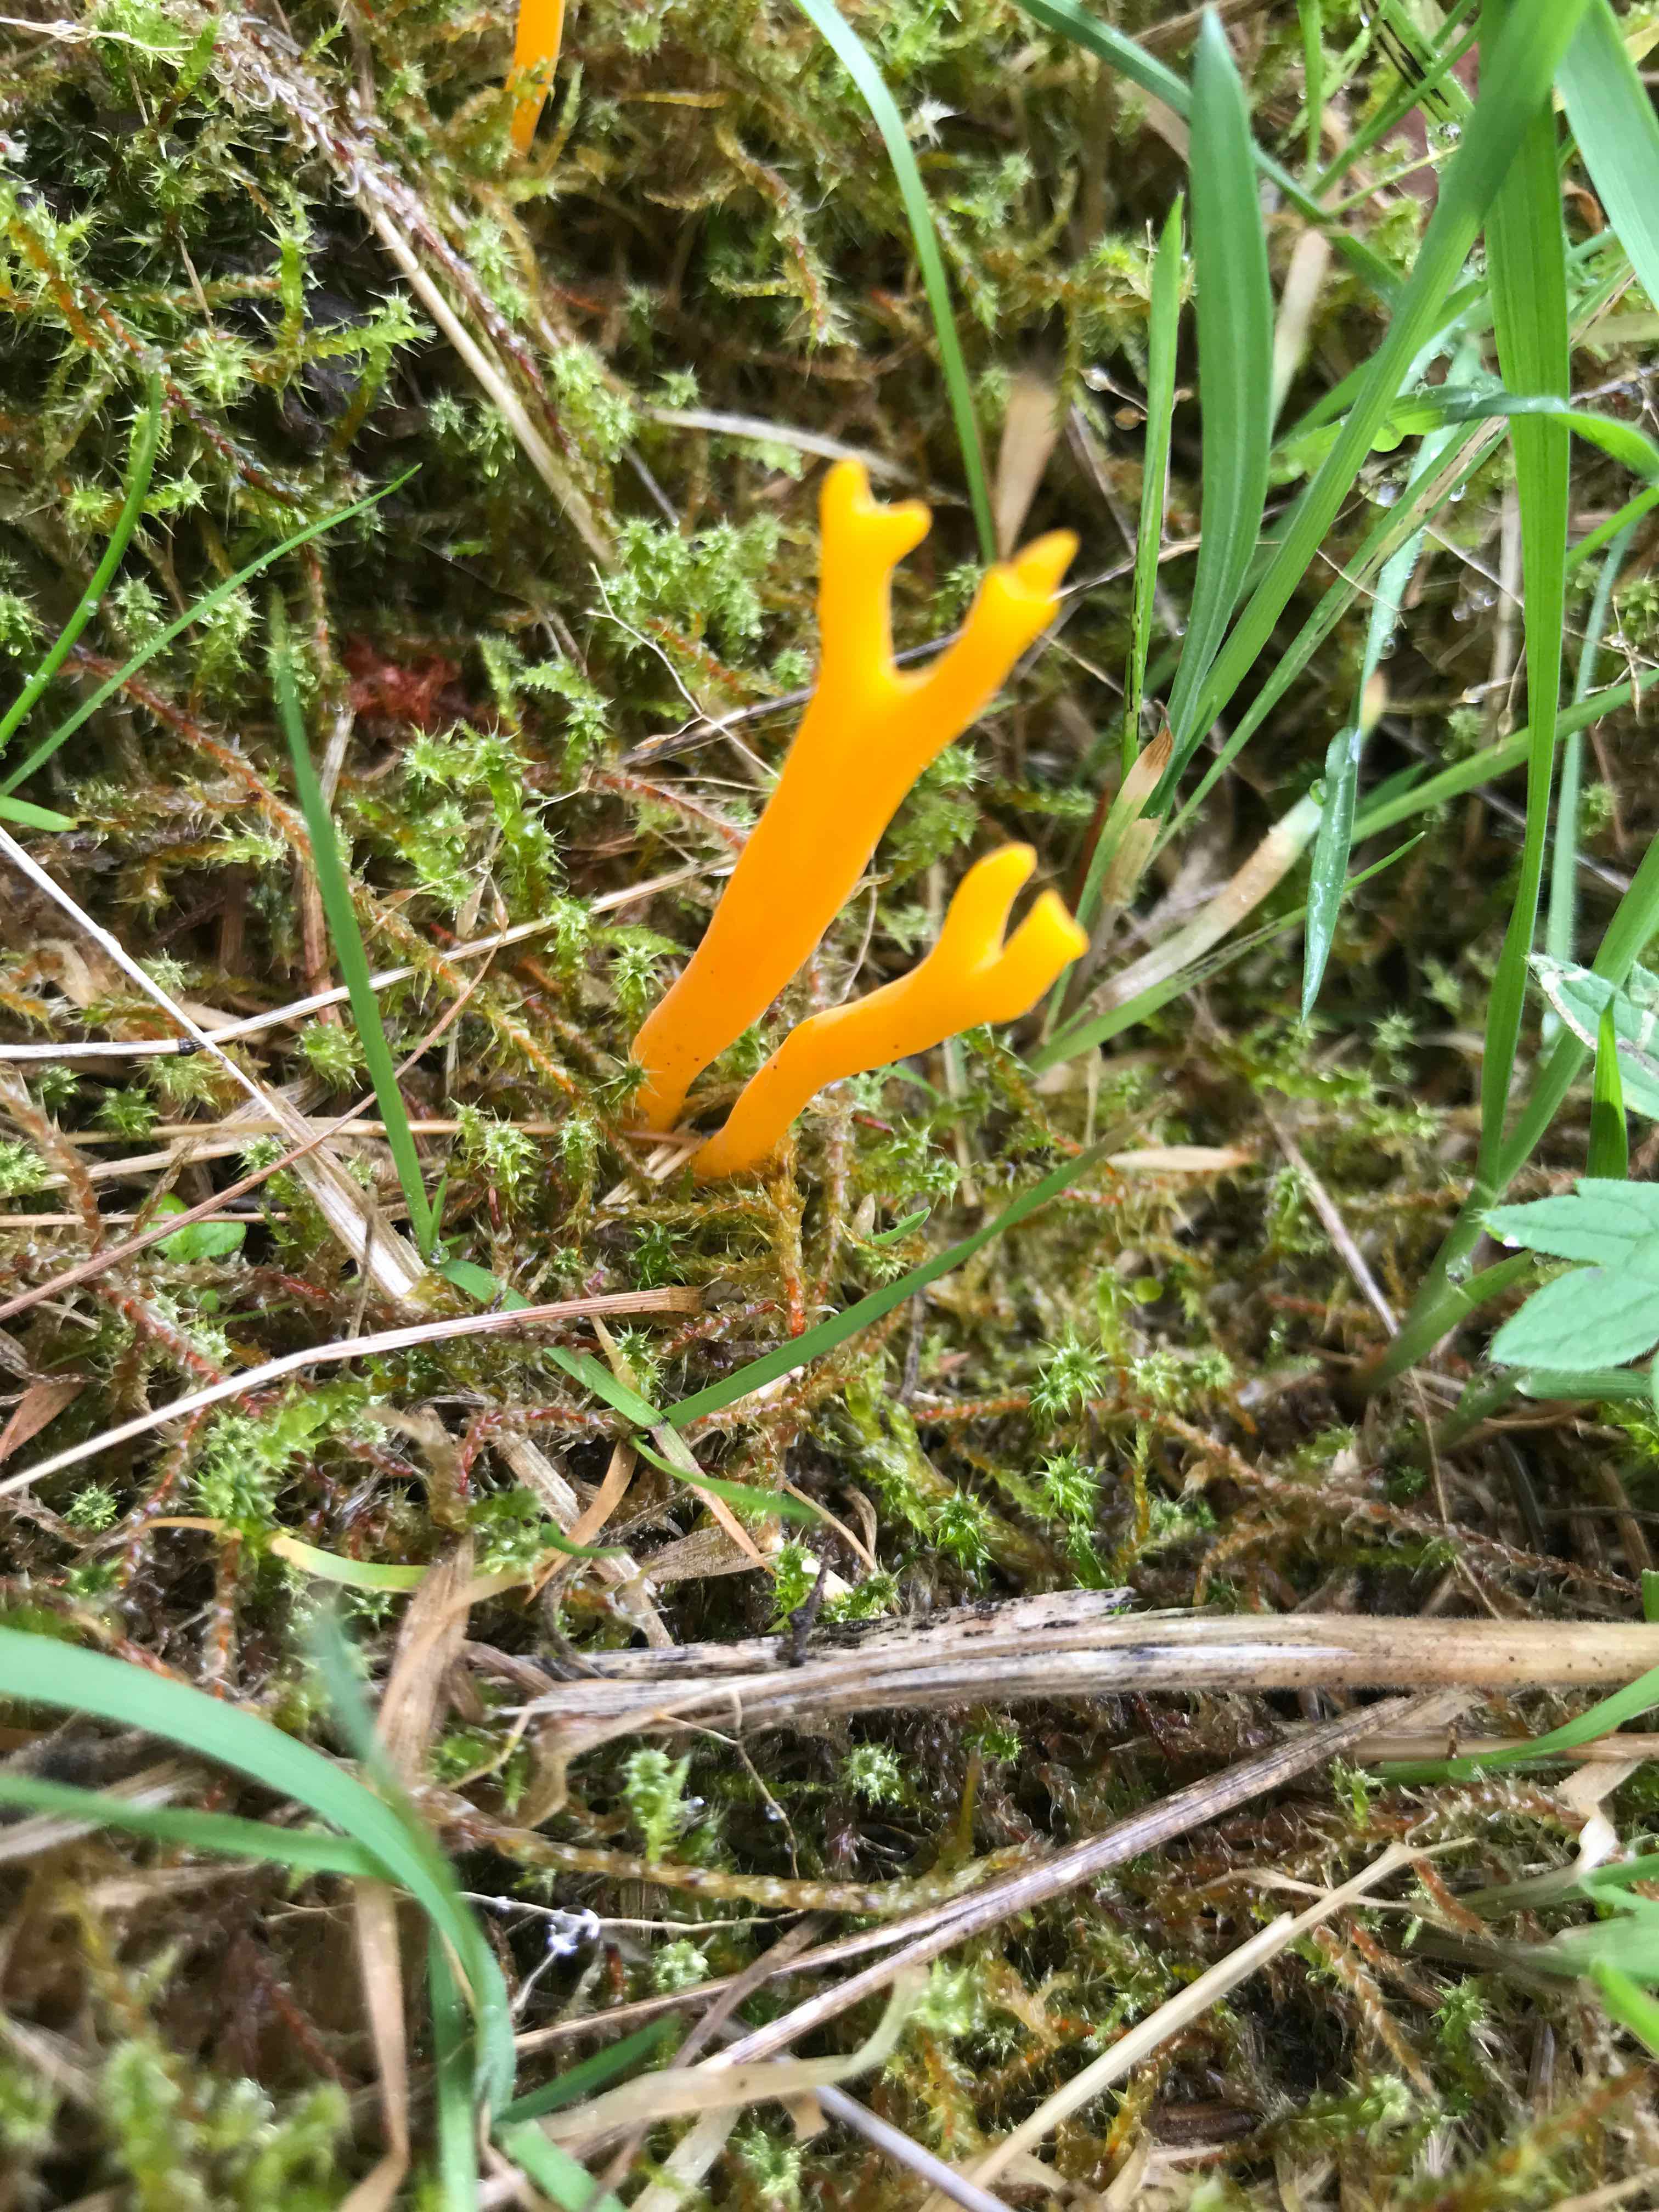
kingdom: Fungi
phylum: Basidiomycota
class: Dacrymycetes
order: Dacrymycetales
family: Dacrymycetaceae
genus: Calocera
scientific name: Calocera viscosa
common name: almindelig guldgaffel
